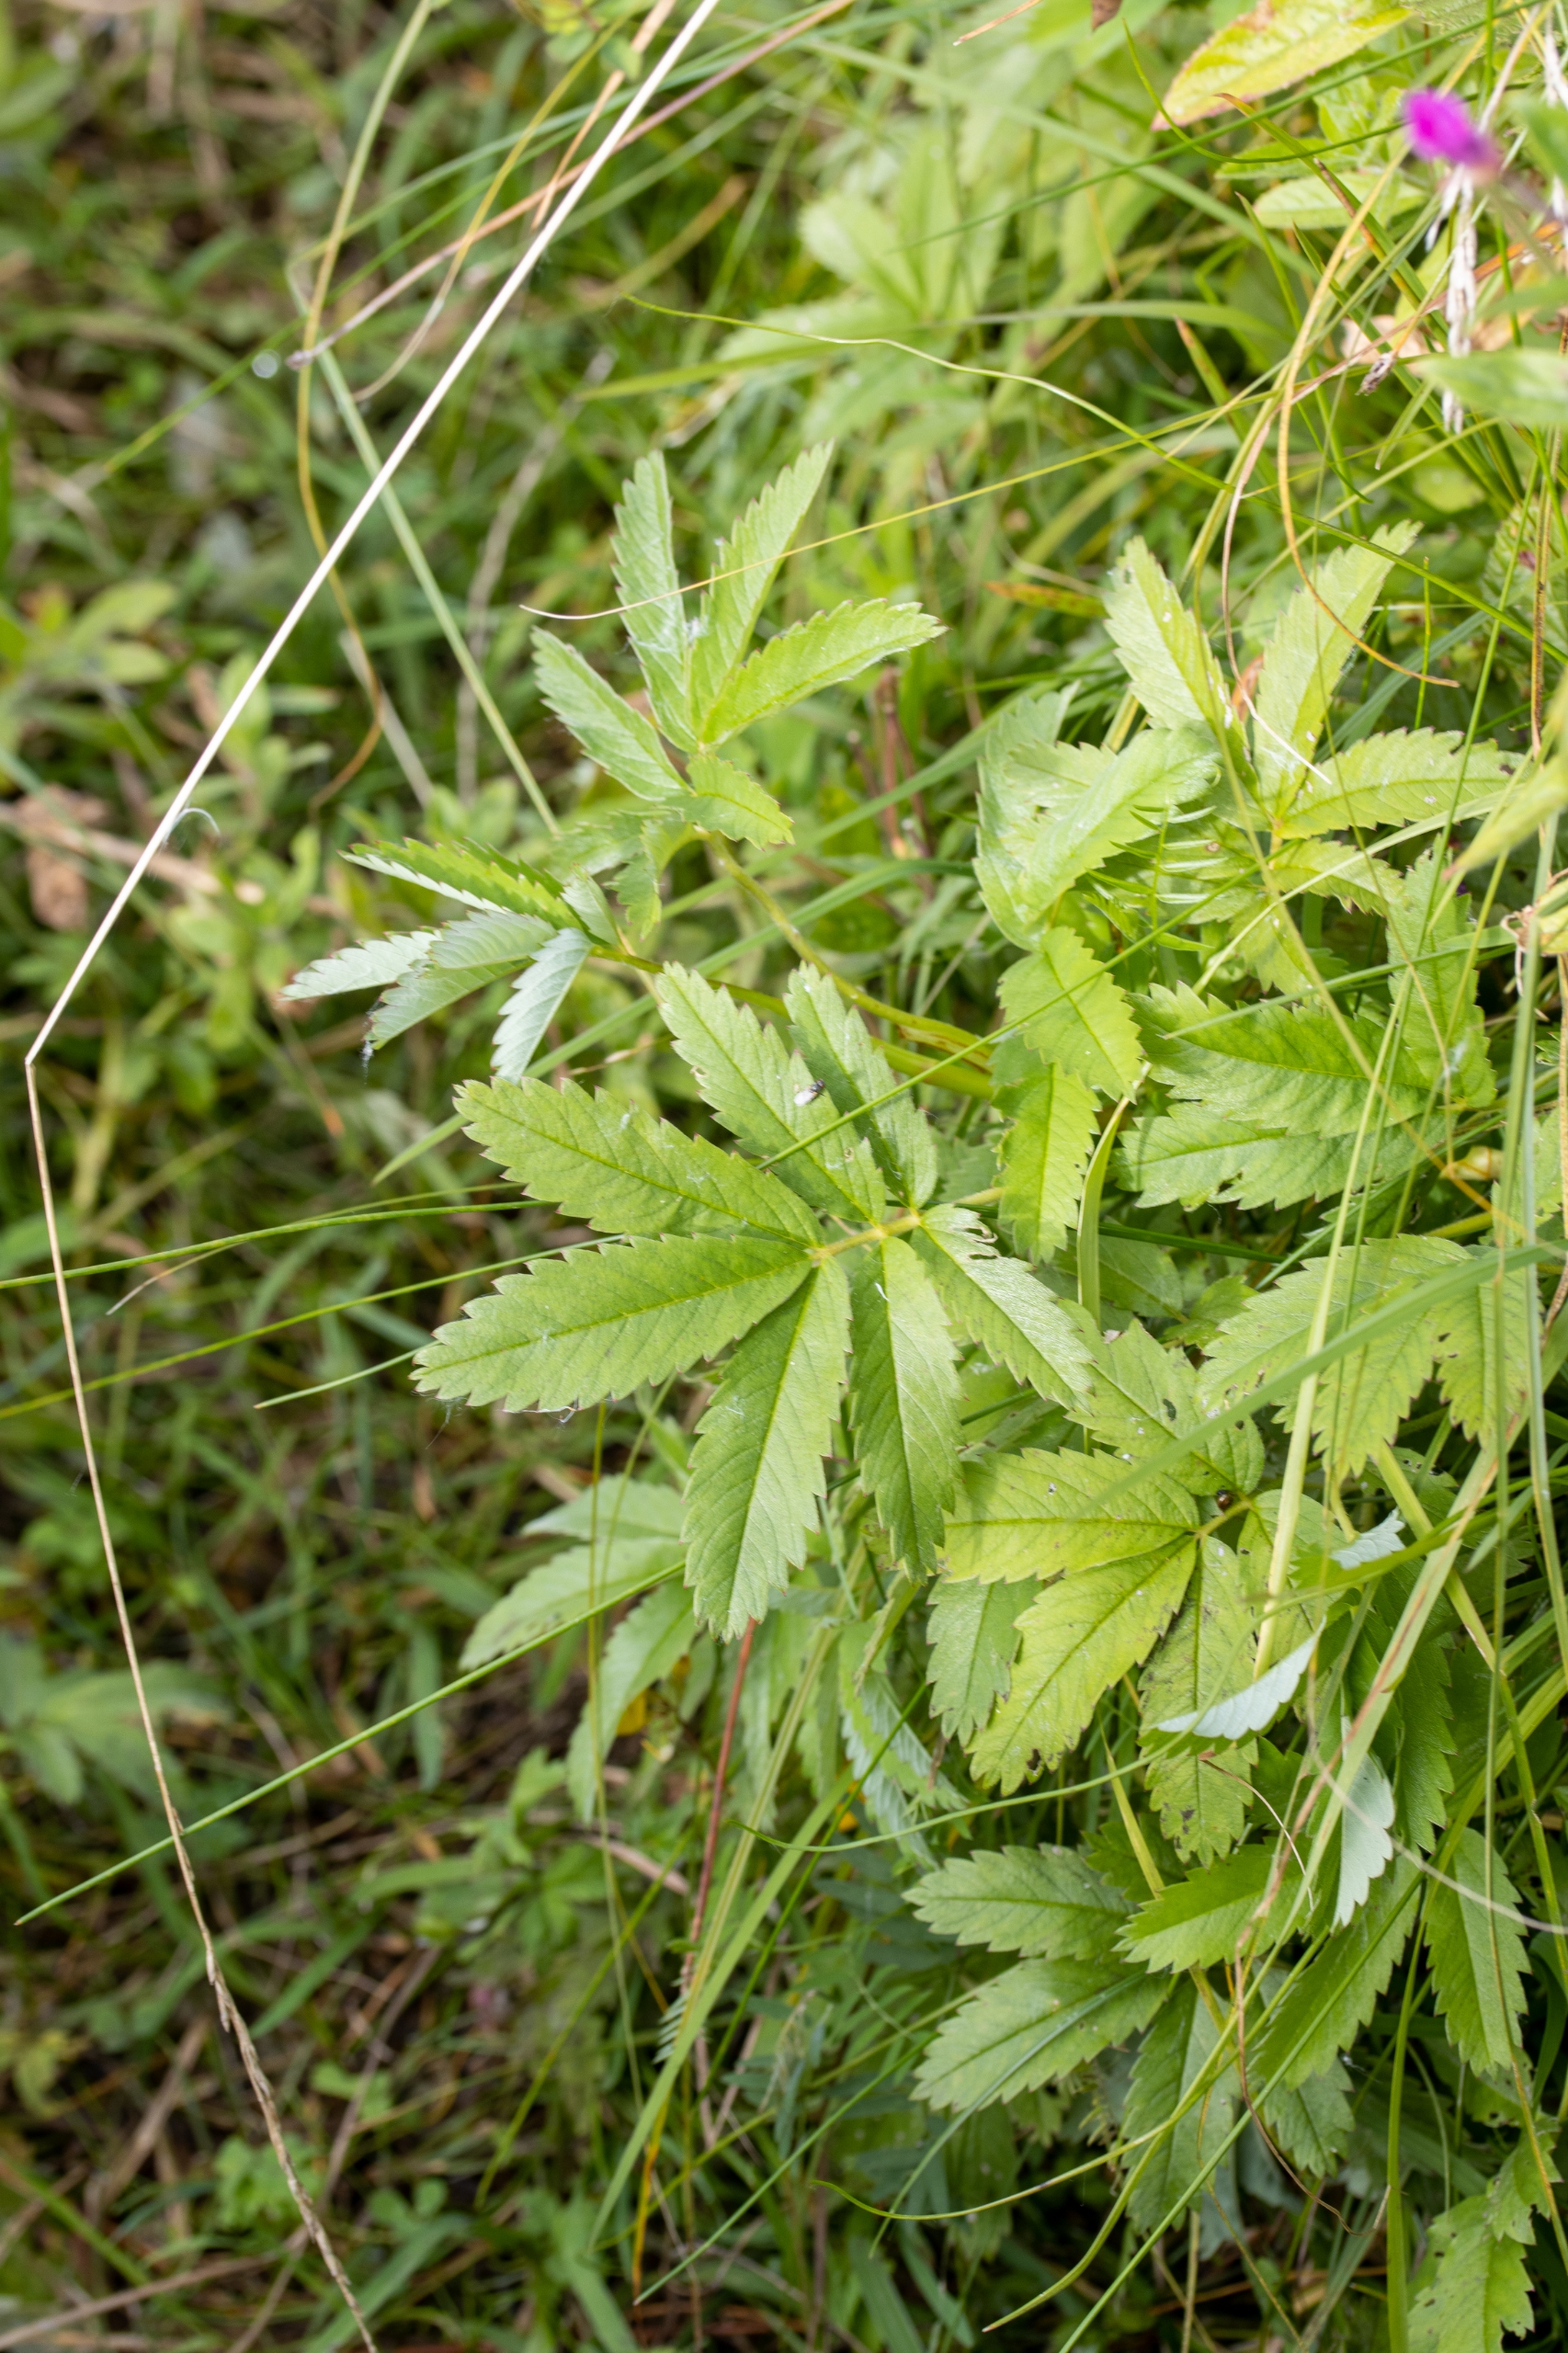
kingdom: Plantae
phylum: Tracheophyta
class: Magnoliopsida
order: Rosales
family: Rosaceae
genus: Comarum
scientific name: Comarum palustre
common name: Kragefod
